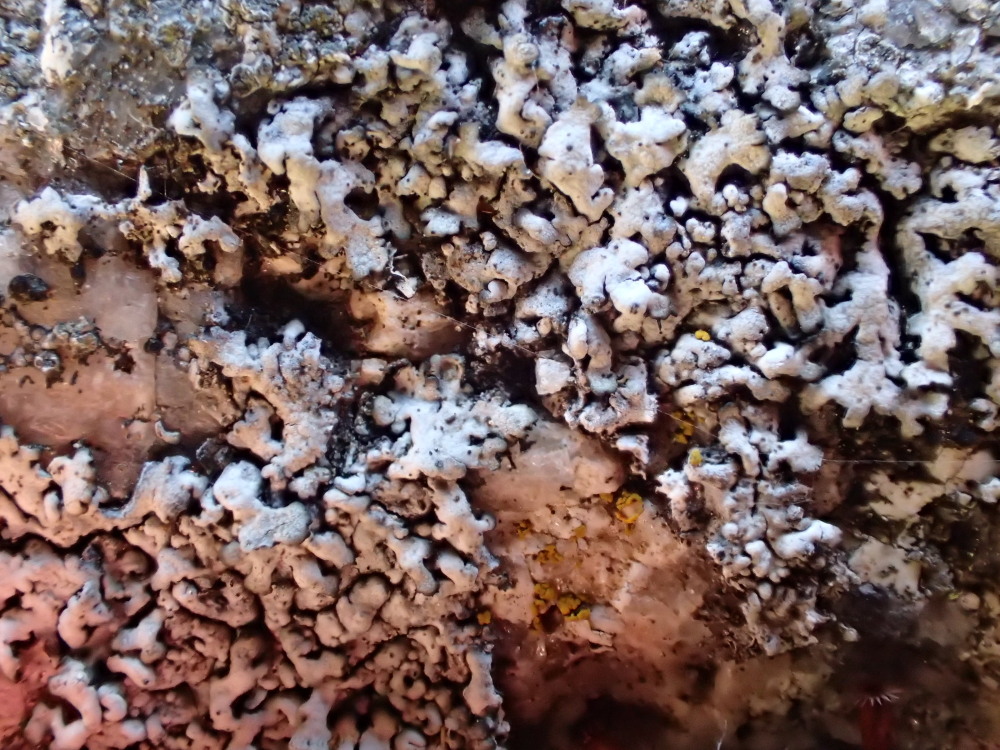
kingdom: Fungi
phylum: Ascomycota
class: Lecanoromycetes
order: Caliciales
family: Physciaceae
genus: Physcia
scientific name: Physcia caesia
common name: blågrå rosetlav
